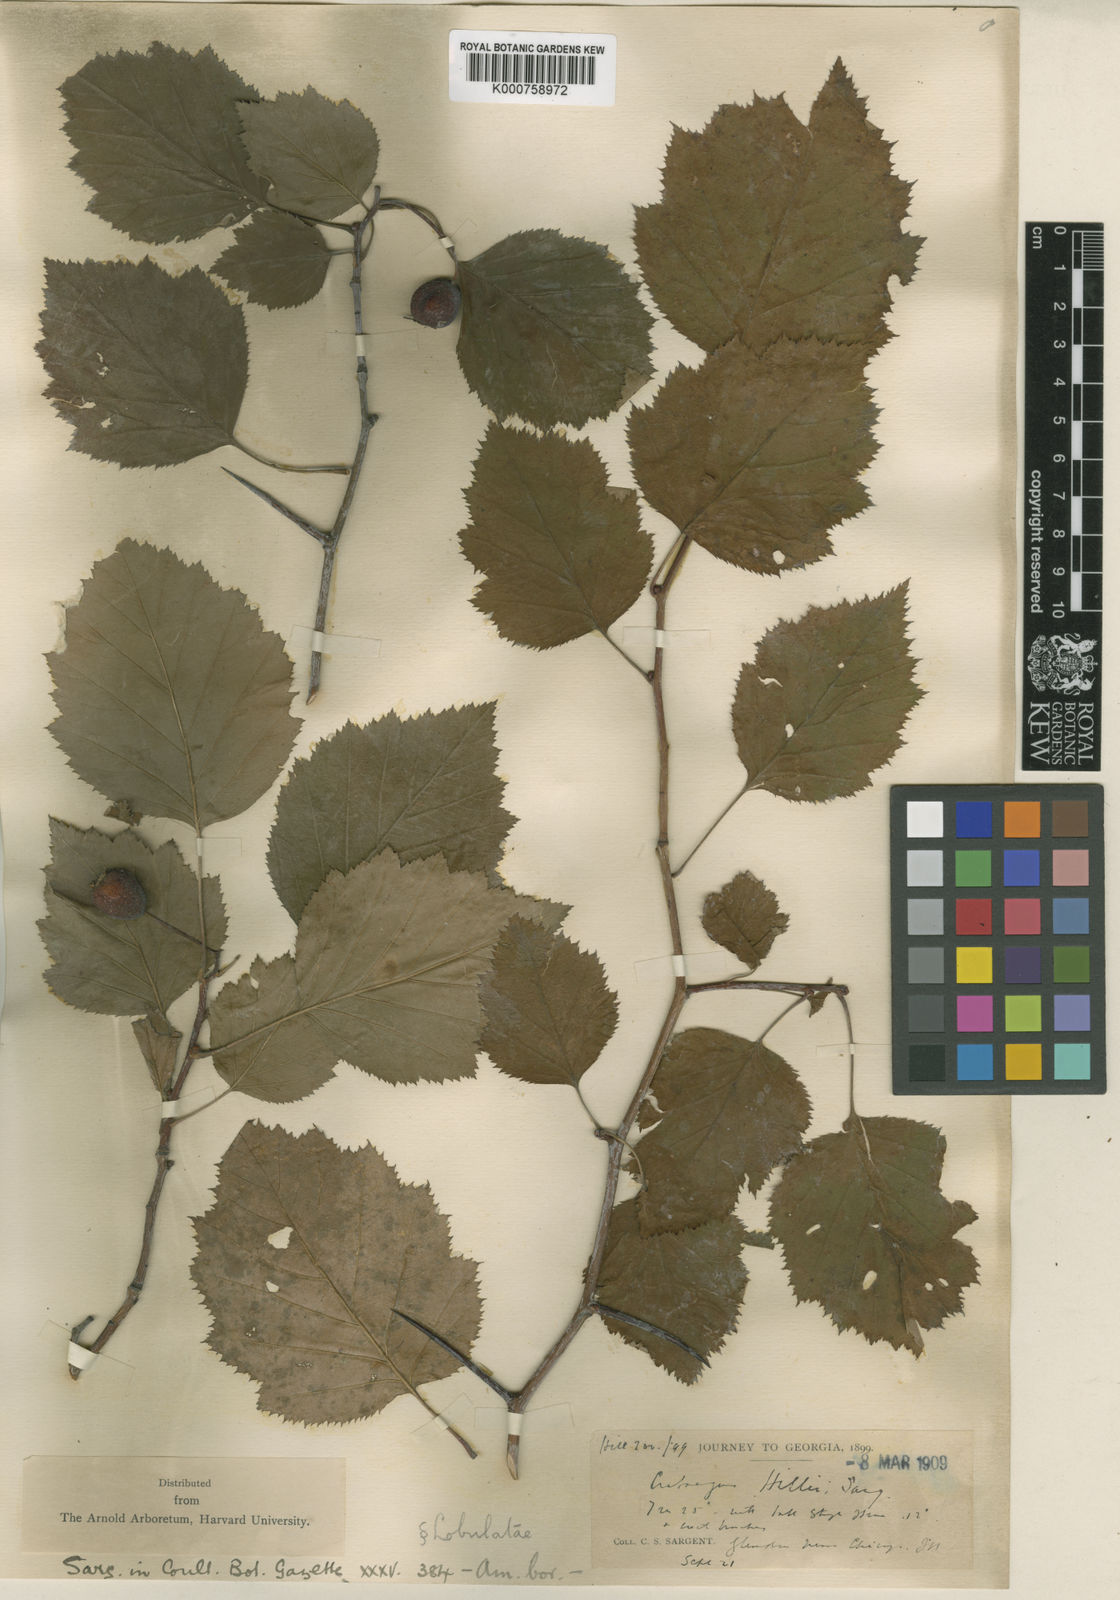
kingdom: Plantae
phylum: Tracheophyta
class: Magnoliopsida
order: Rosales
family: Rosaceae
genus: Crataegus
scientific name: Crataegus corusca
